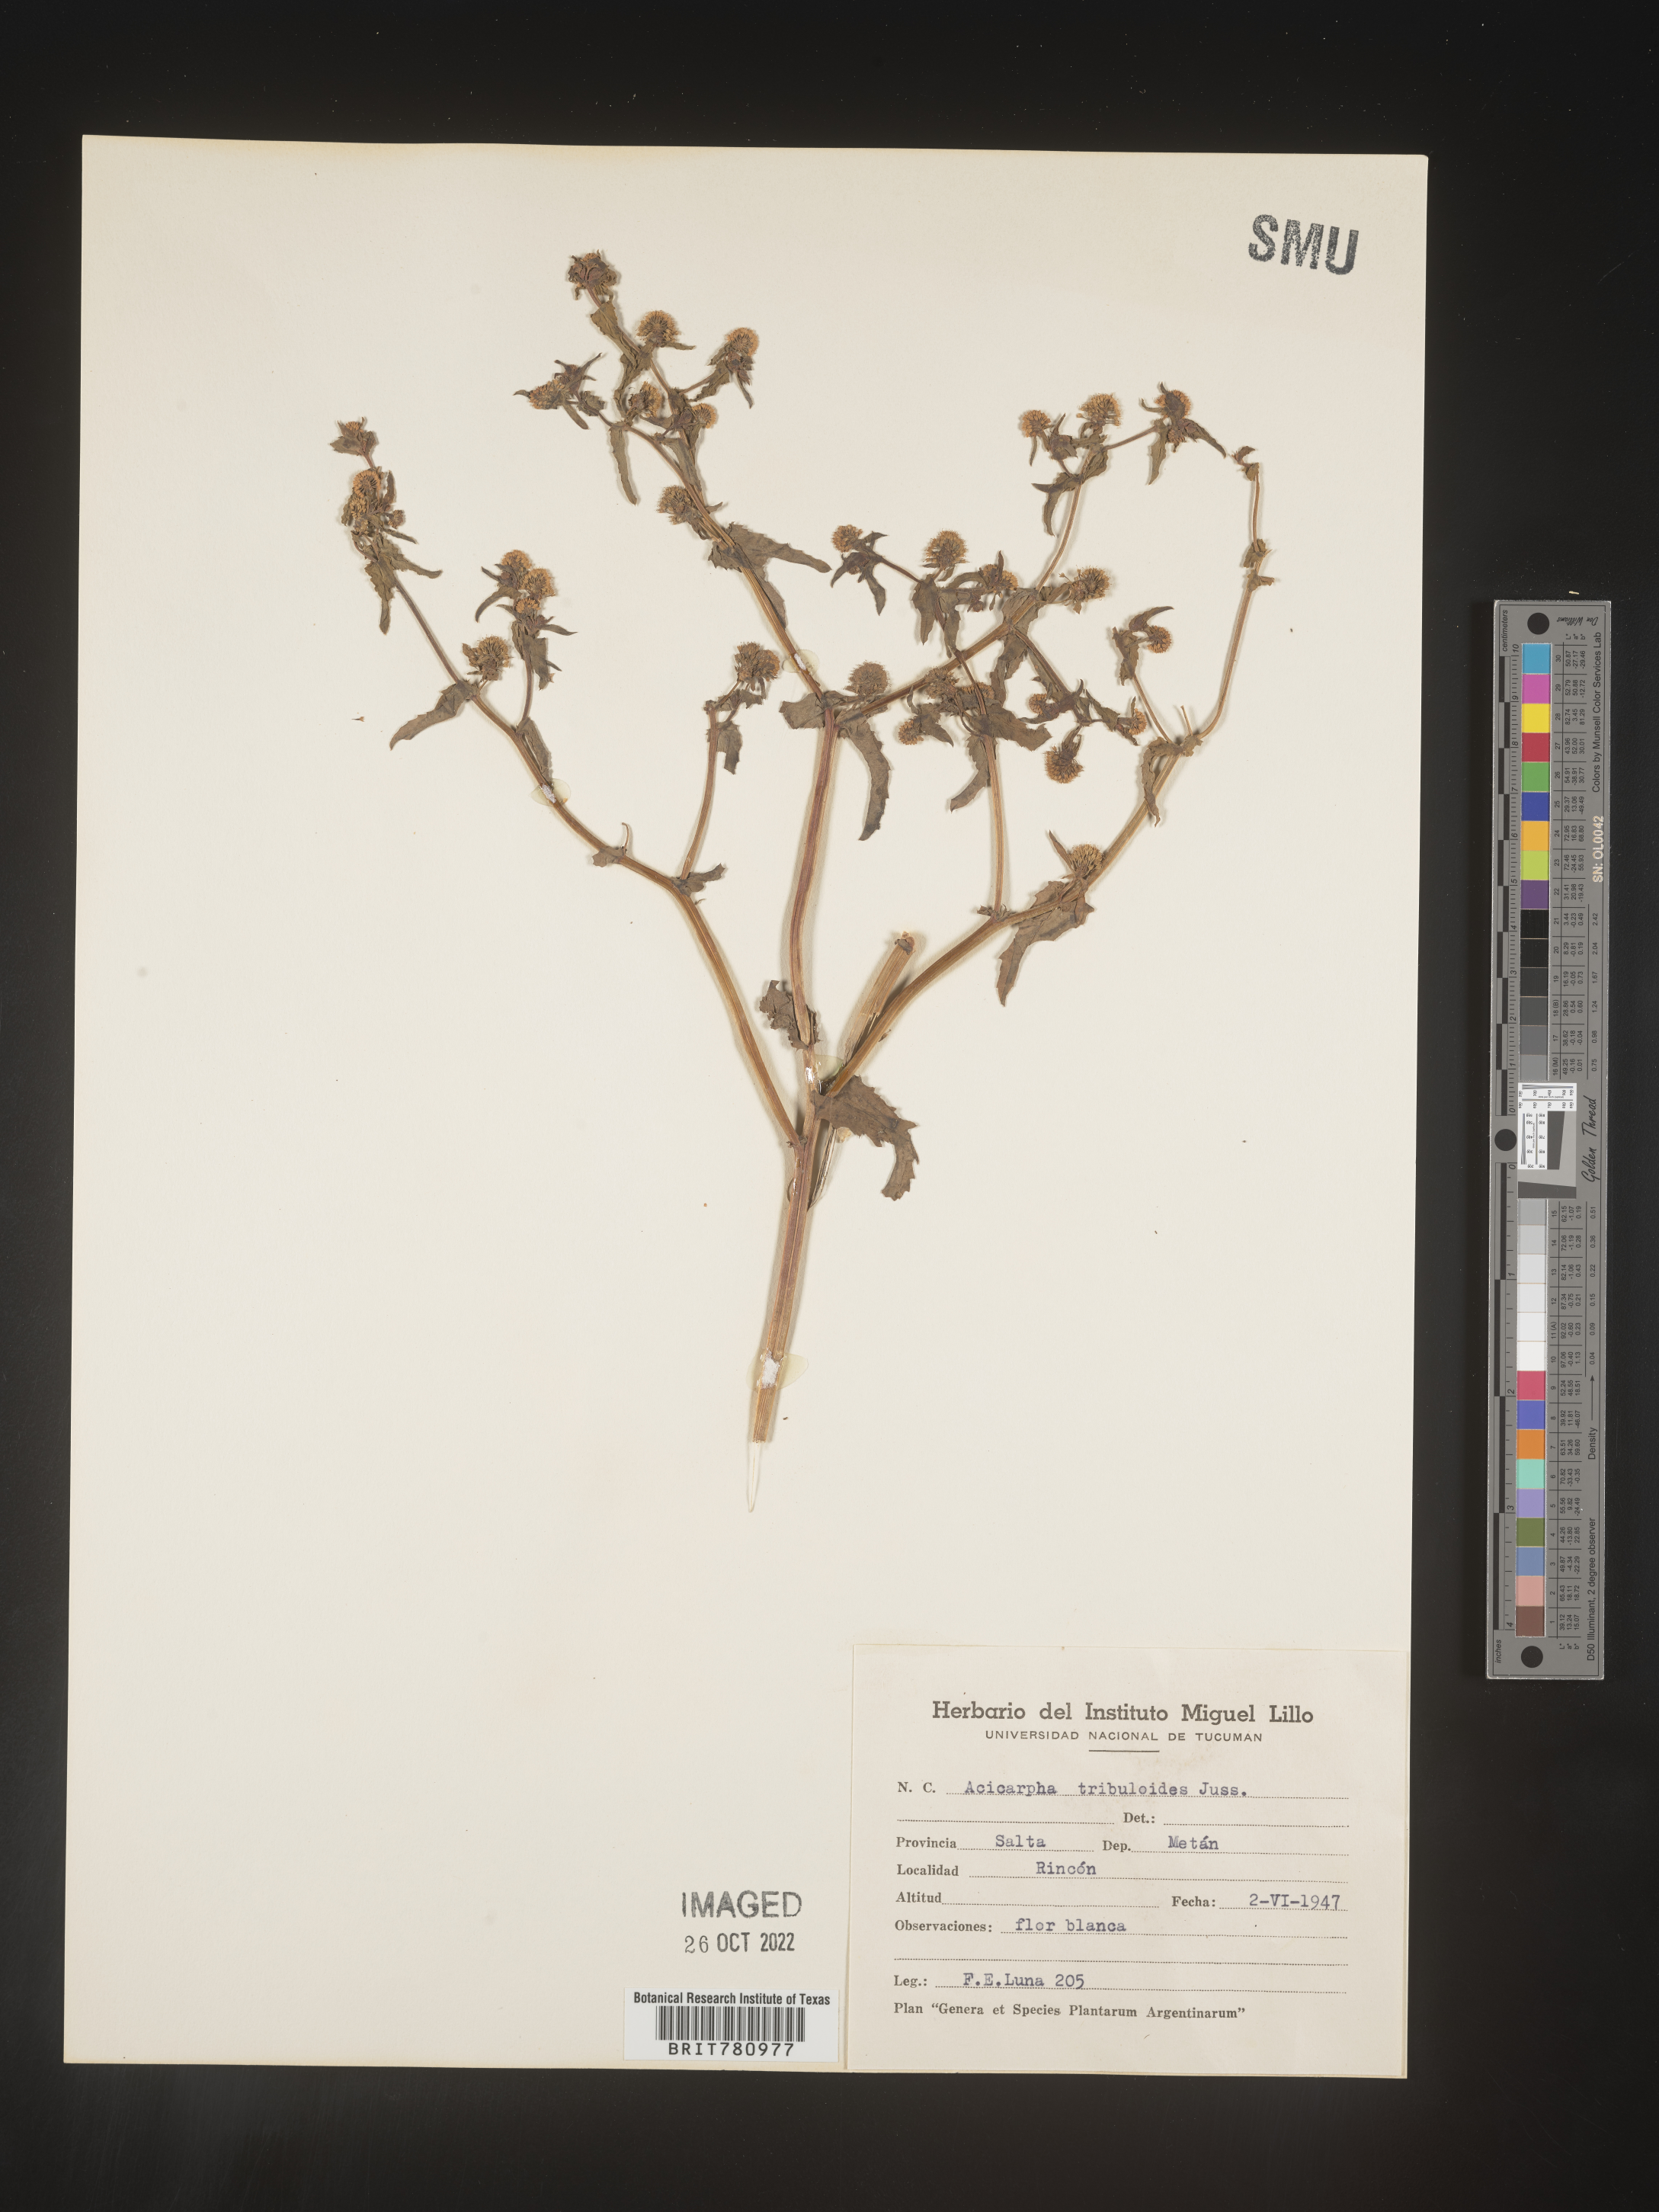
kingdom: Plantae
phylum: Tracheophyta
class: Magnoliopsida
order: Asterales
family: Calyceraceae
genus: Acicarpha
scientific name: Acicarpha
